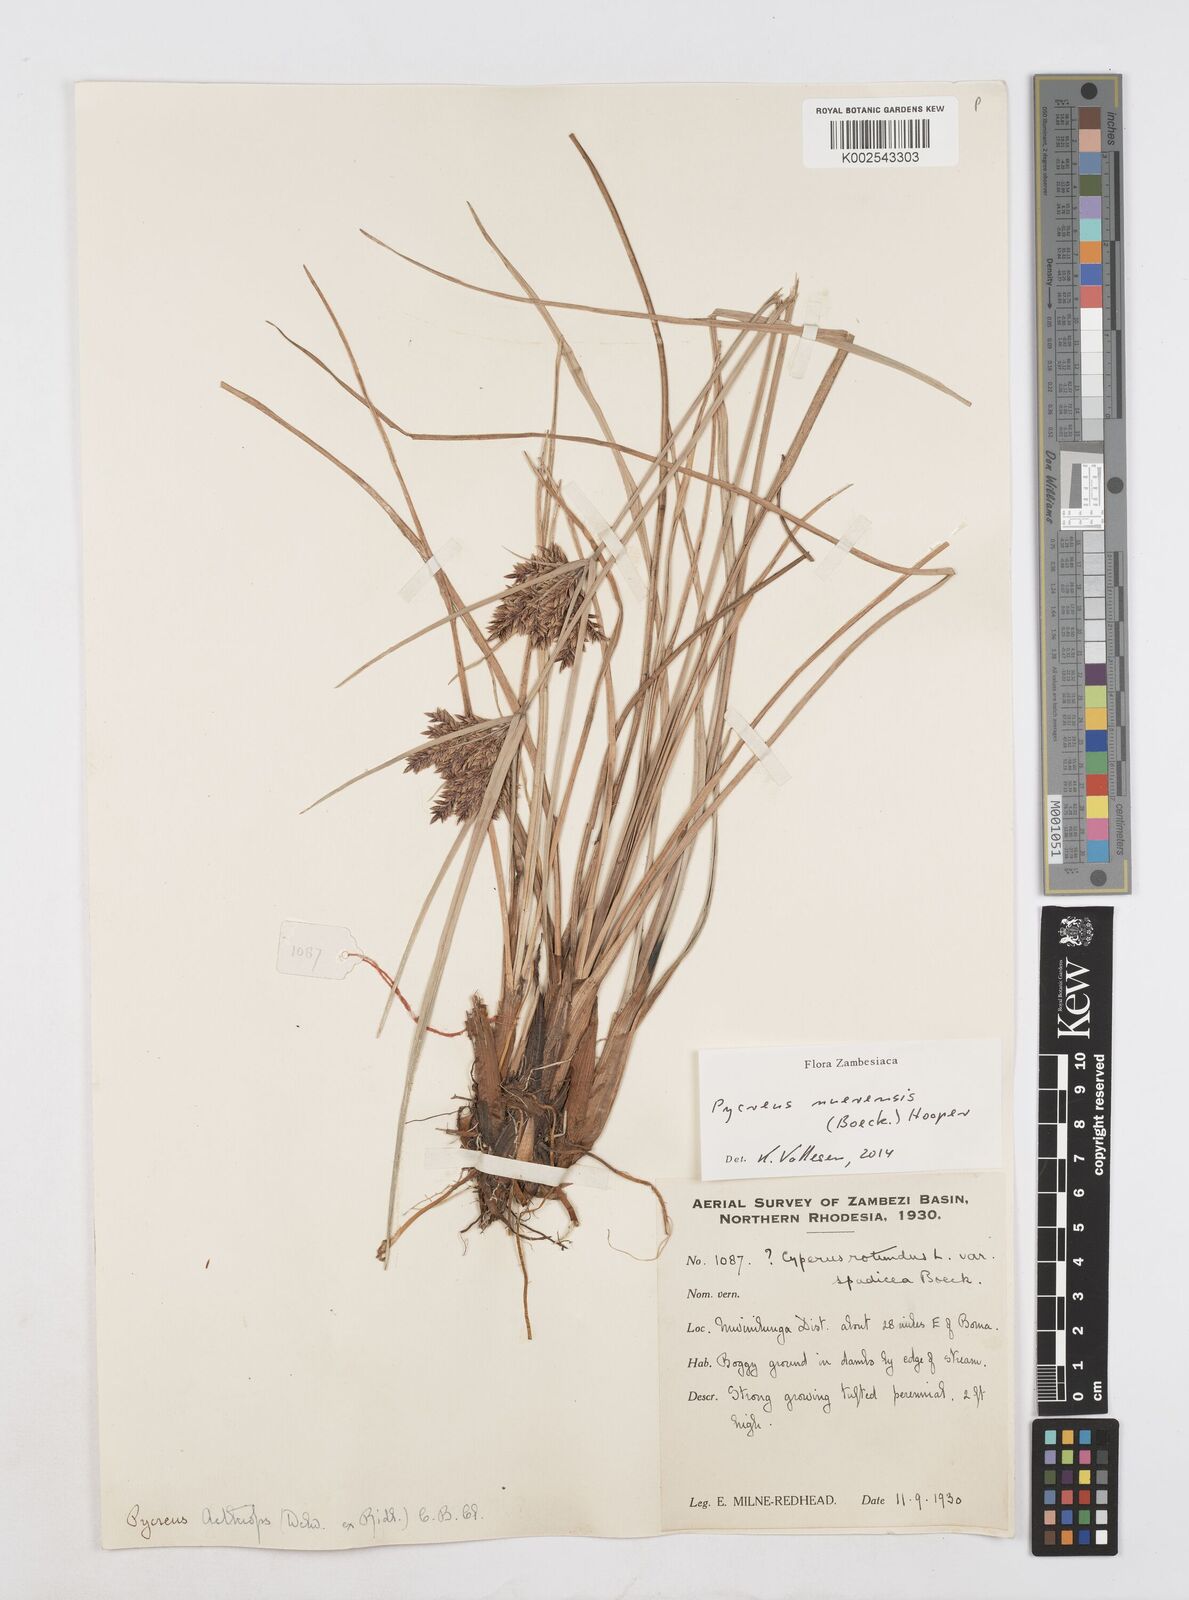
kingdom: Plantae
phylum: Tracheophyta
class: Liliopsida
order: Poales
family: Cyperaceae
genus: Cyperus
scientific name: Cyperus nuerensis
